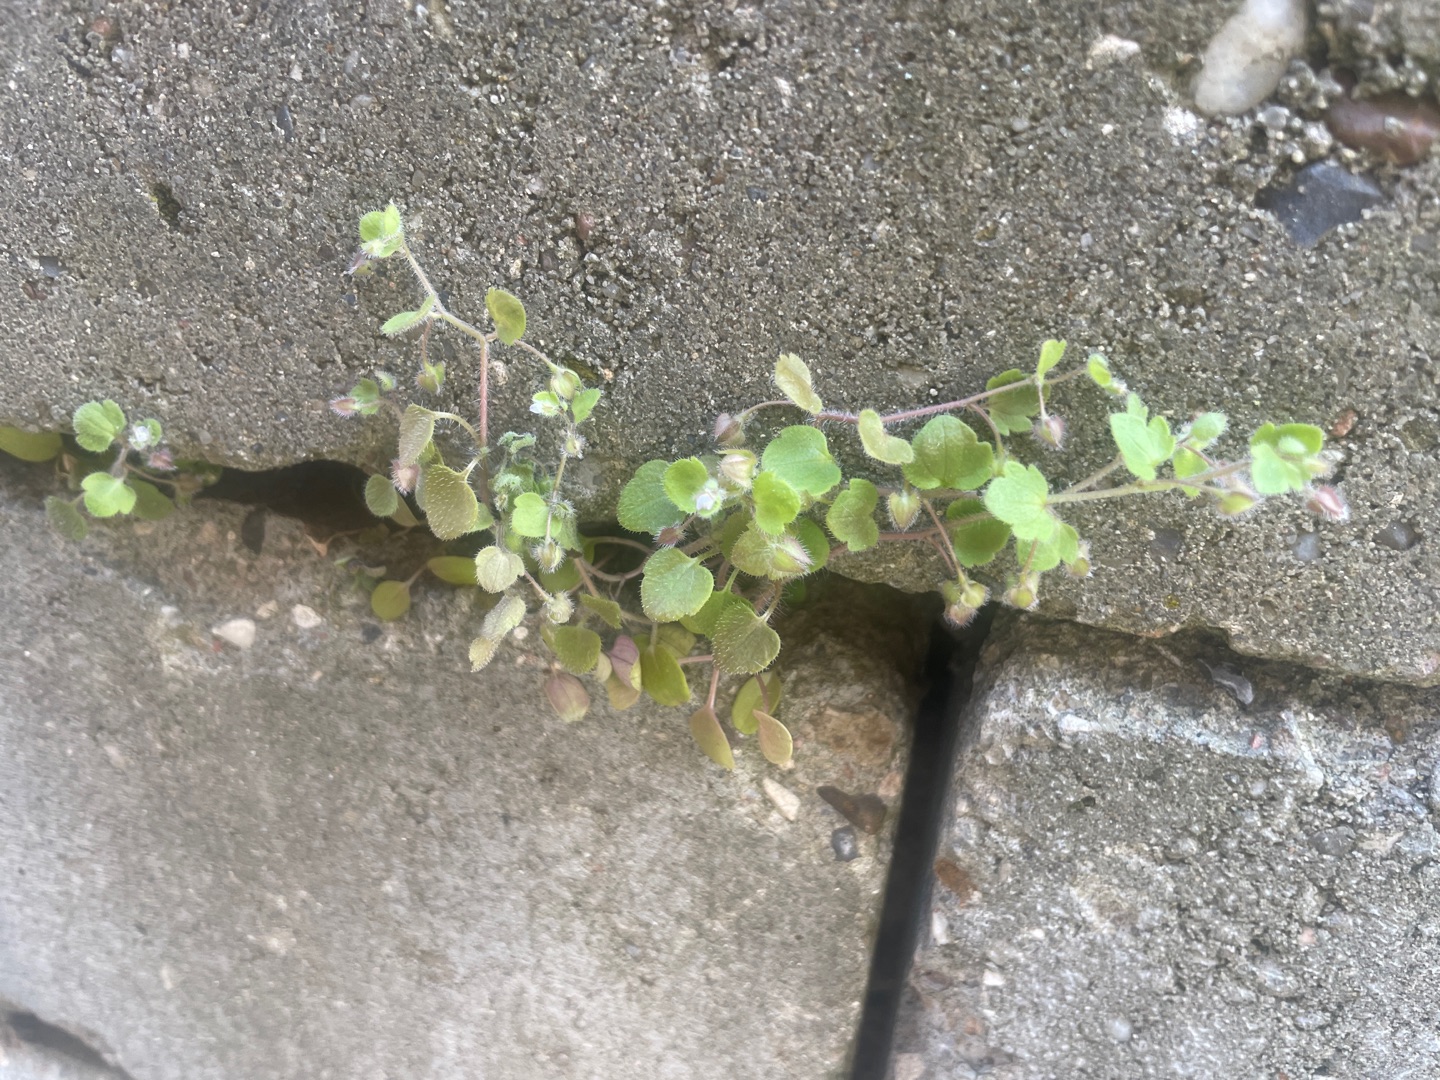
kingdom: Plantae
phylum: Tracheophyta
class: Magnoliopsida
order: Lamiales
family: Plantaginaceae
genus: Veronica
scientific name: Veronica sublobata
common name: Krat-ærenpris
